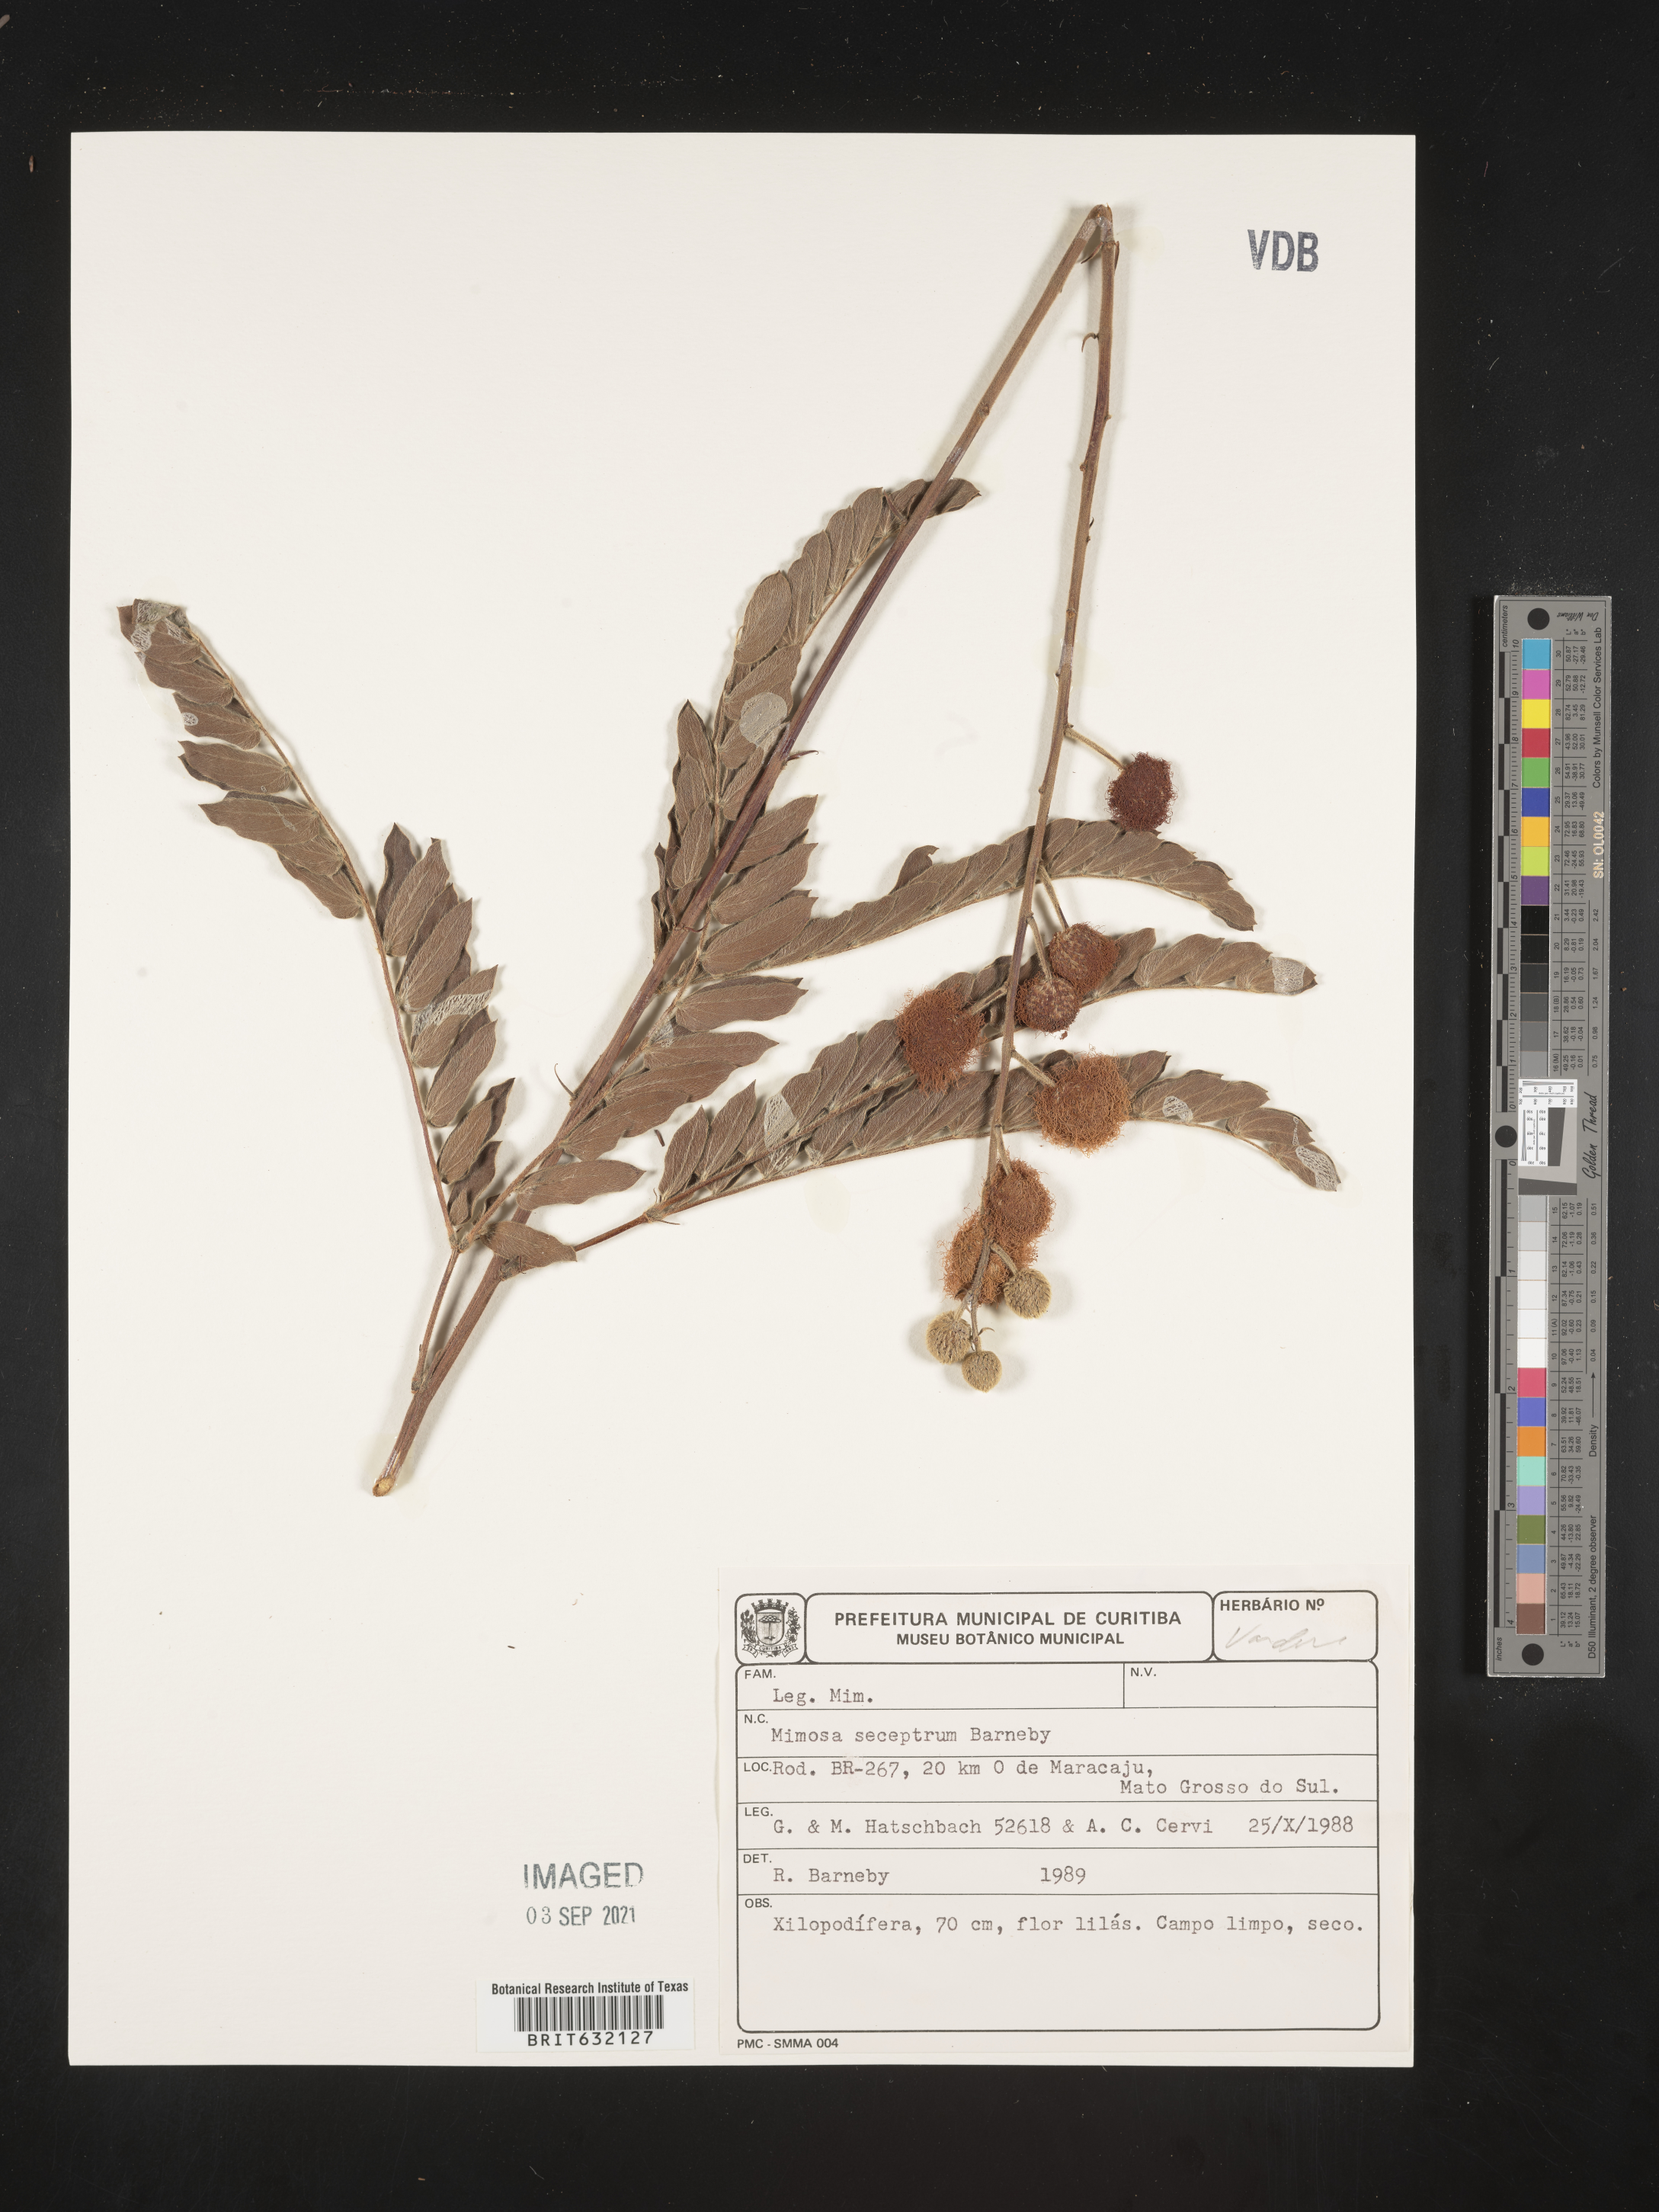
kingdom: Plantae
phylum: Tracheophyta
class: Magnoliopsida
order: Fabales
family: Fabaceae
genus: Mimosa
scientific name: Mimosa
